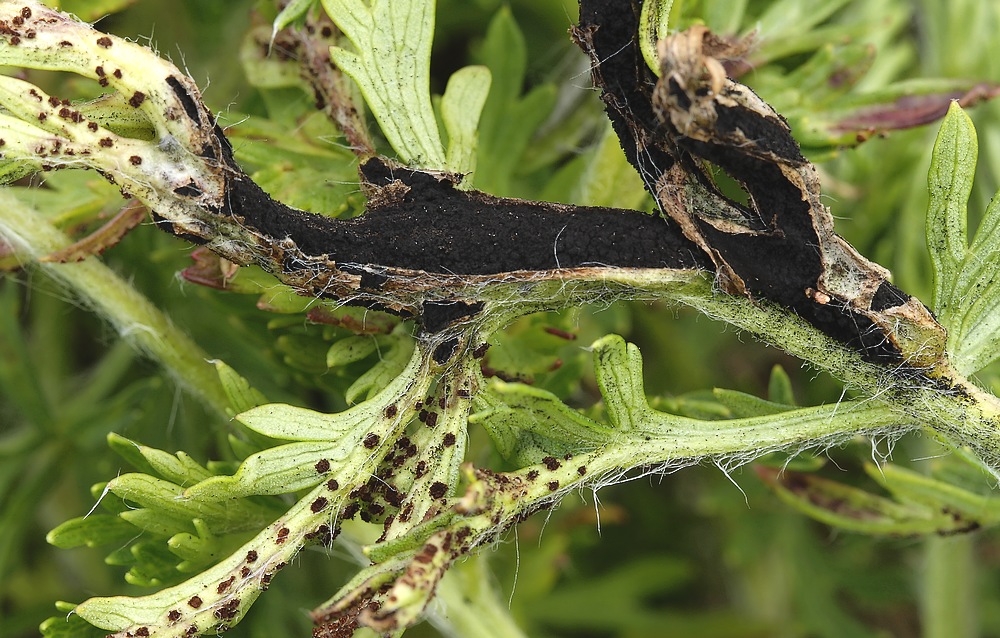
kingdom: Fungi
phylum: Basidiomycota
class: Ustilaginomycetes
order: Urocystidales
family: Urocystidaceae
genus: Urocystis
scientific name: Urocystis pulsatillae
